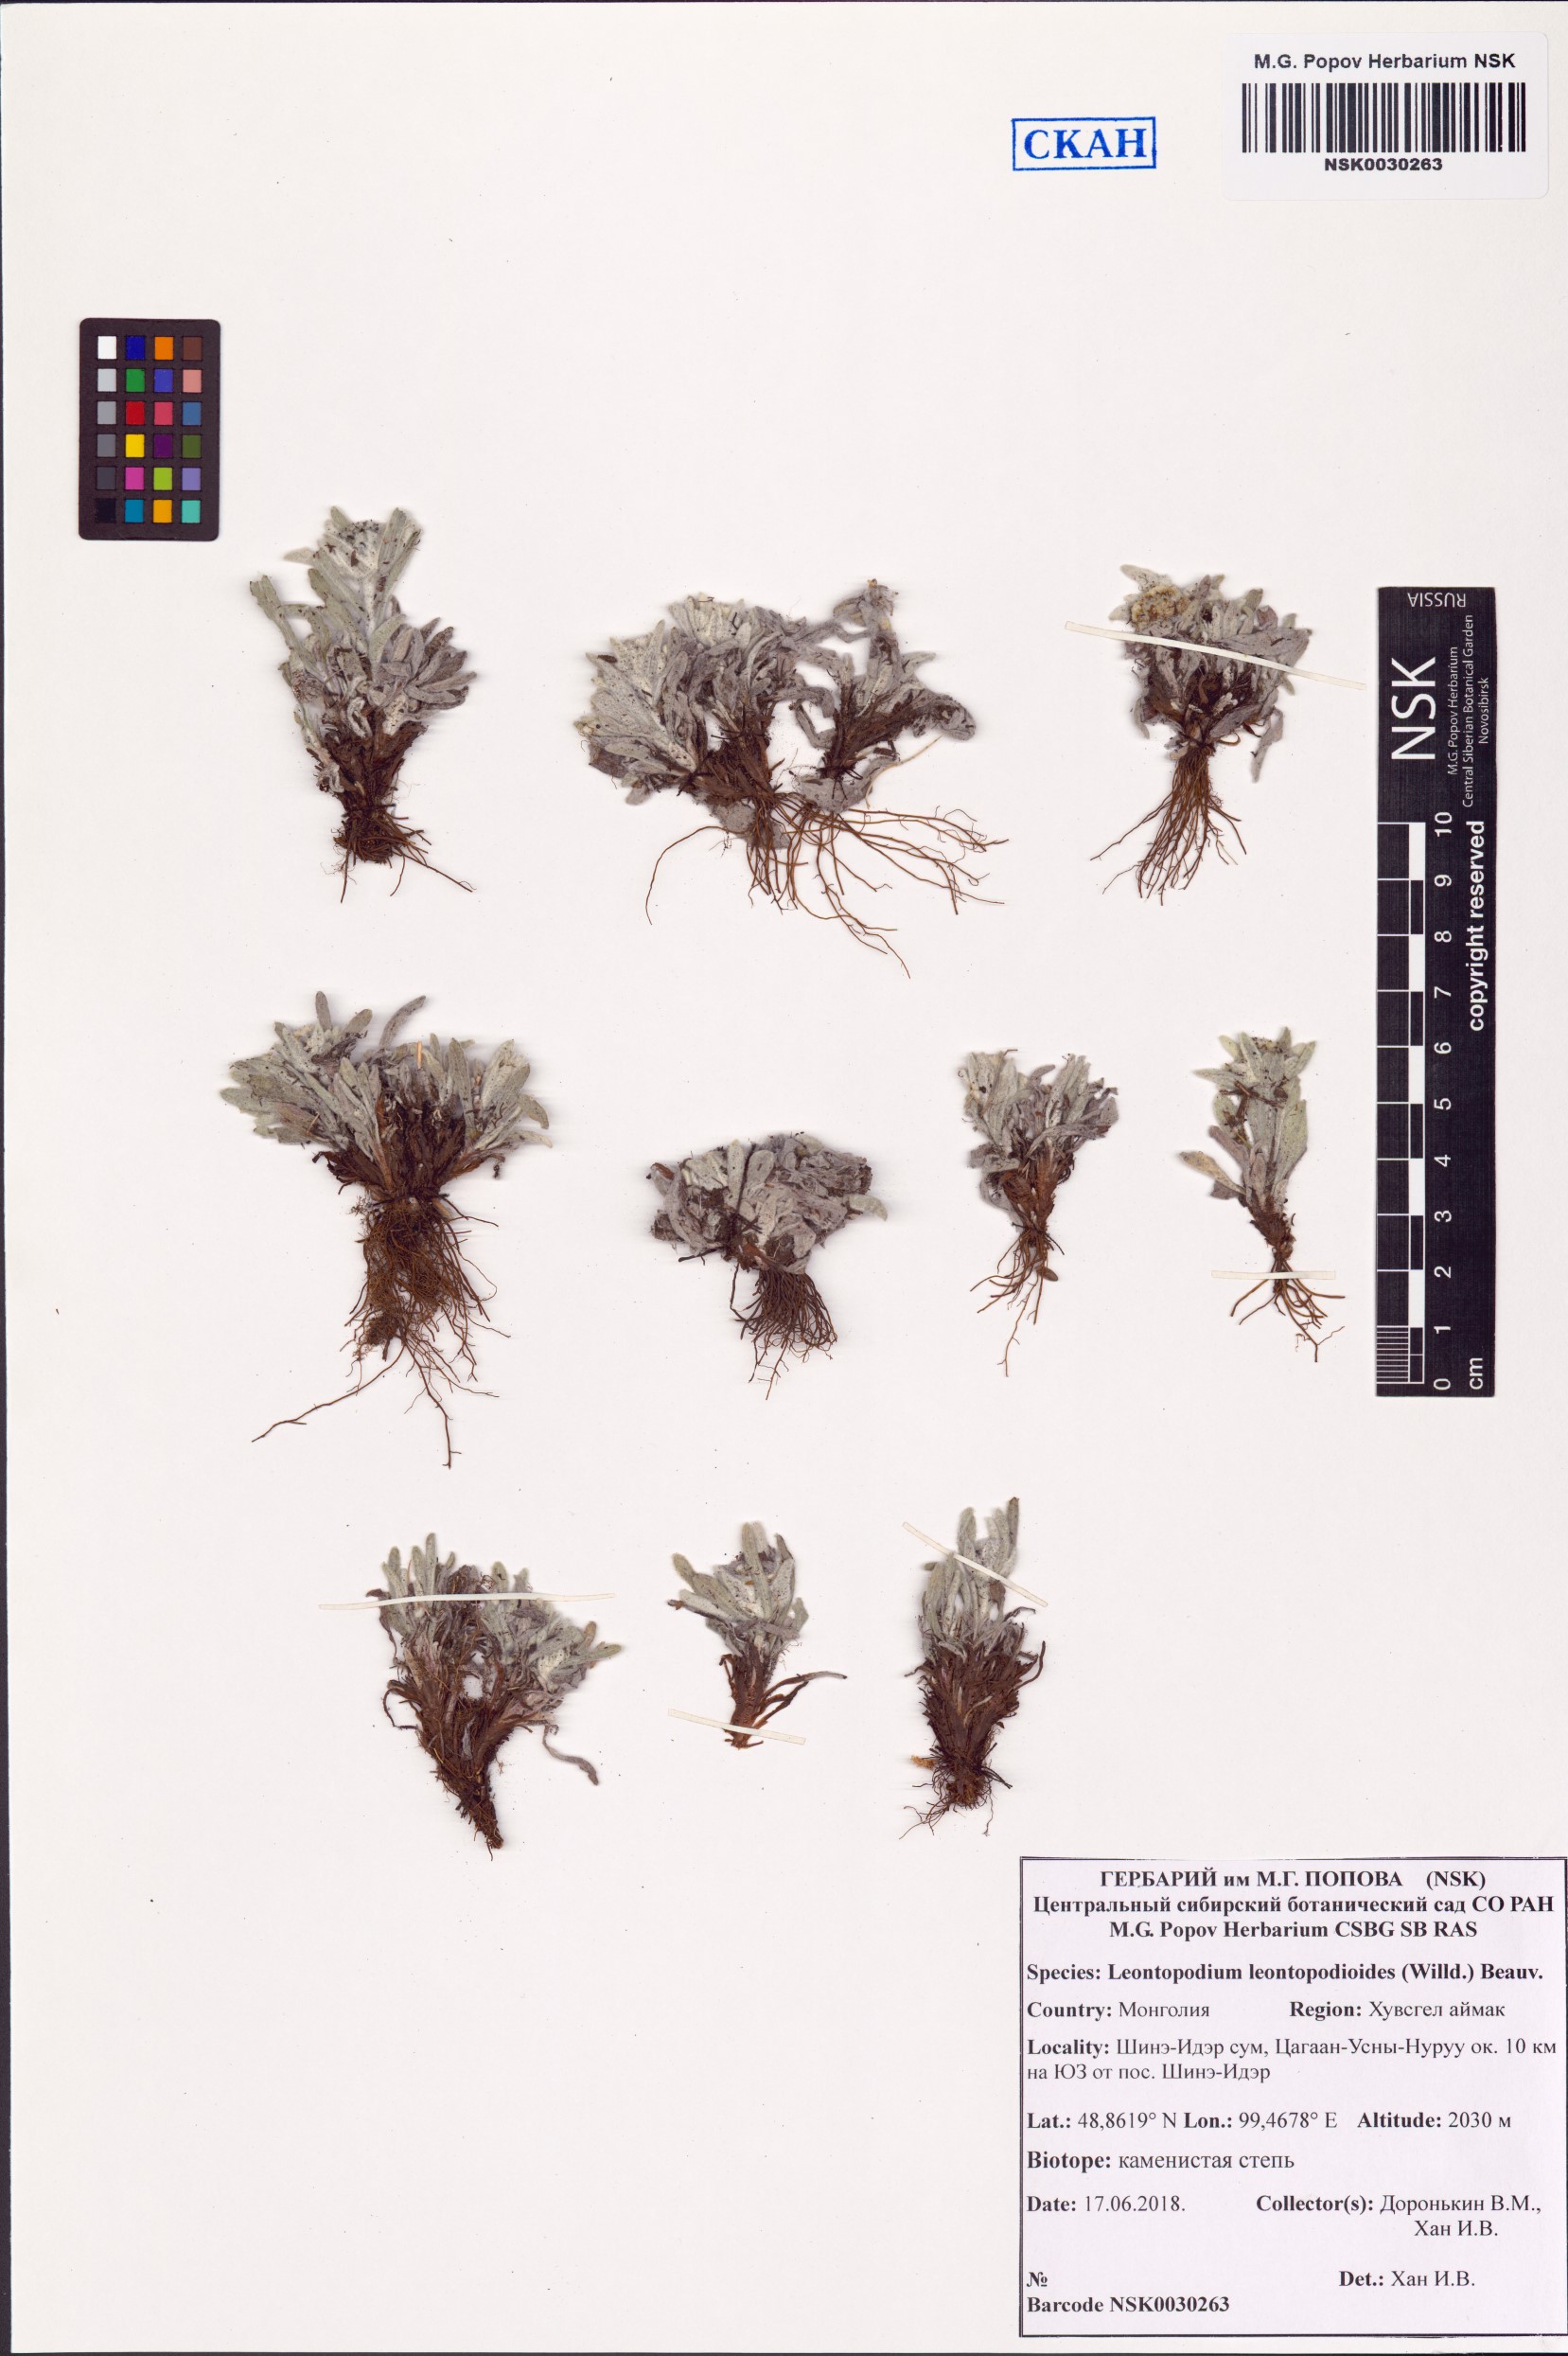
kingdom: Plantae
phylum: Tracheophyta
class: Magnoliopsida
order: Asterales
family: Asteraceae
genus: Leontopodium
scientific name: Leontopodium leontopodioides
